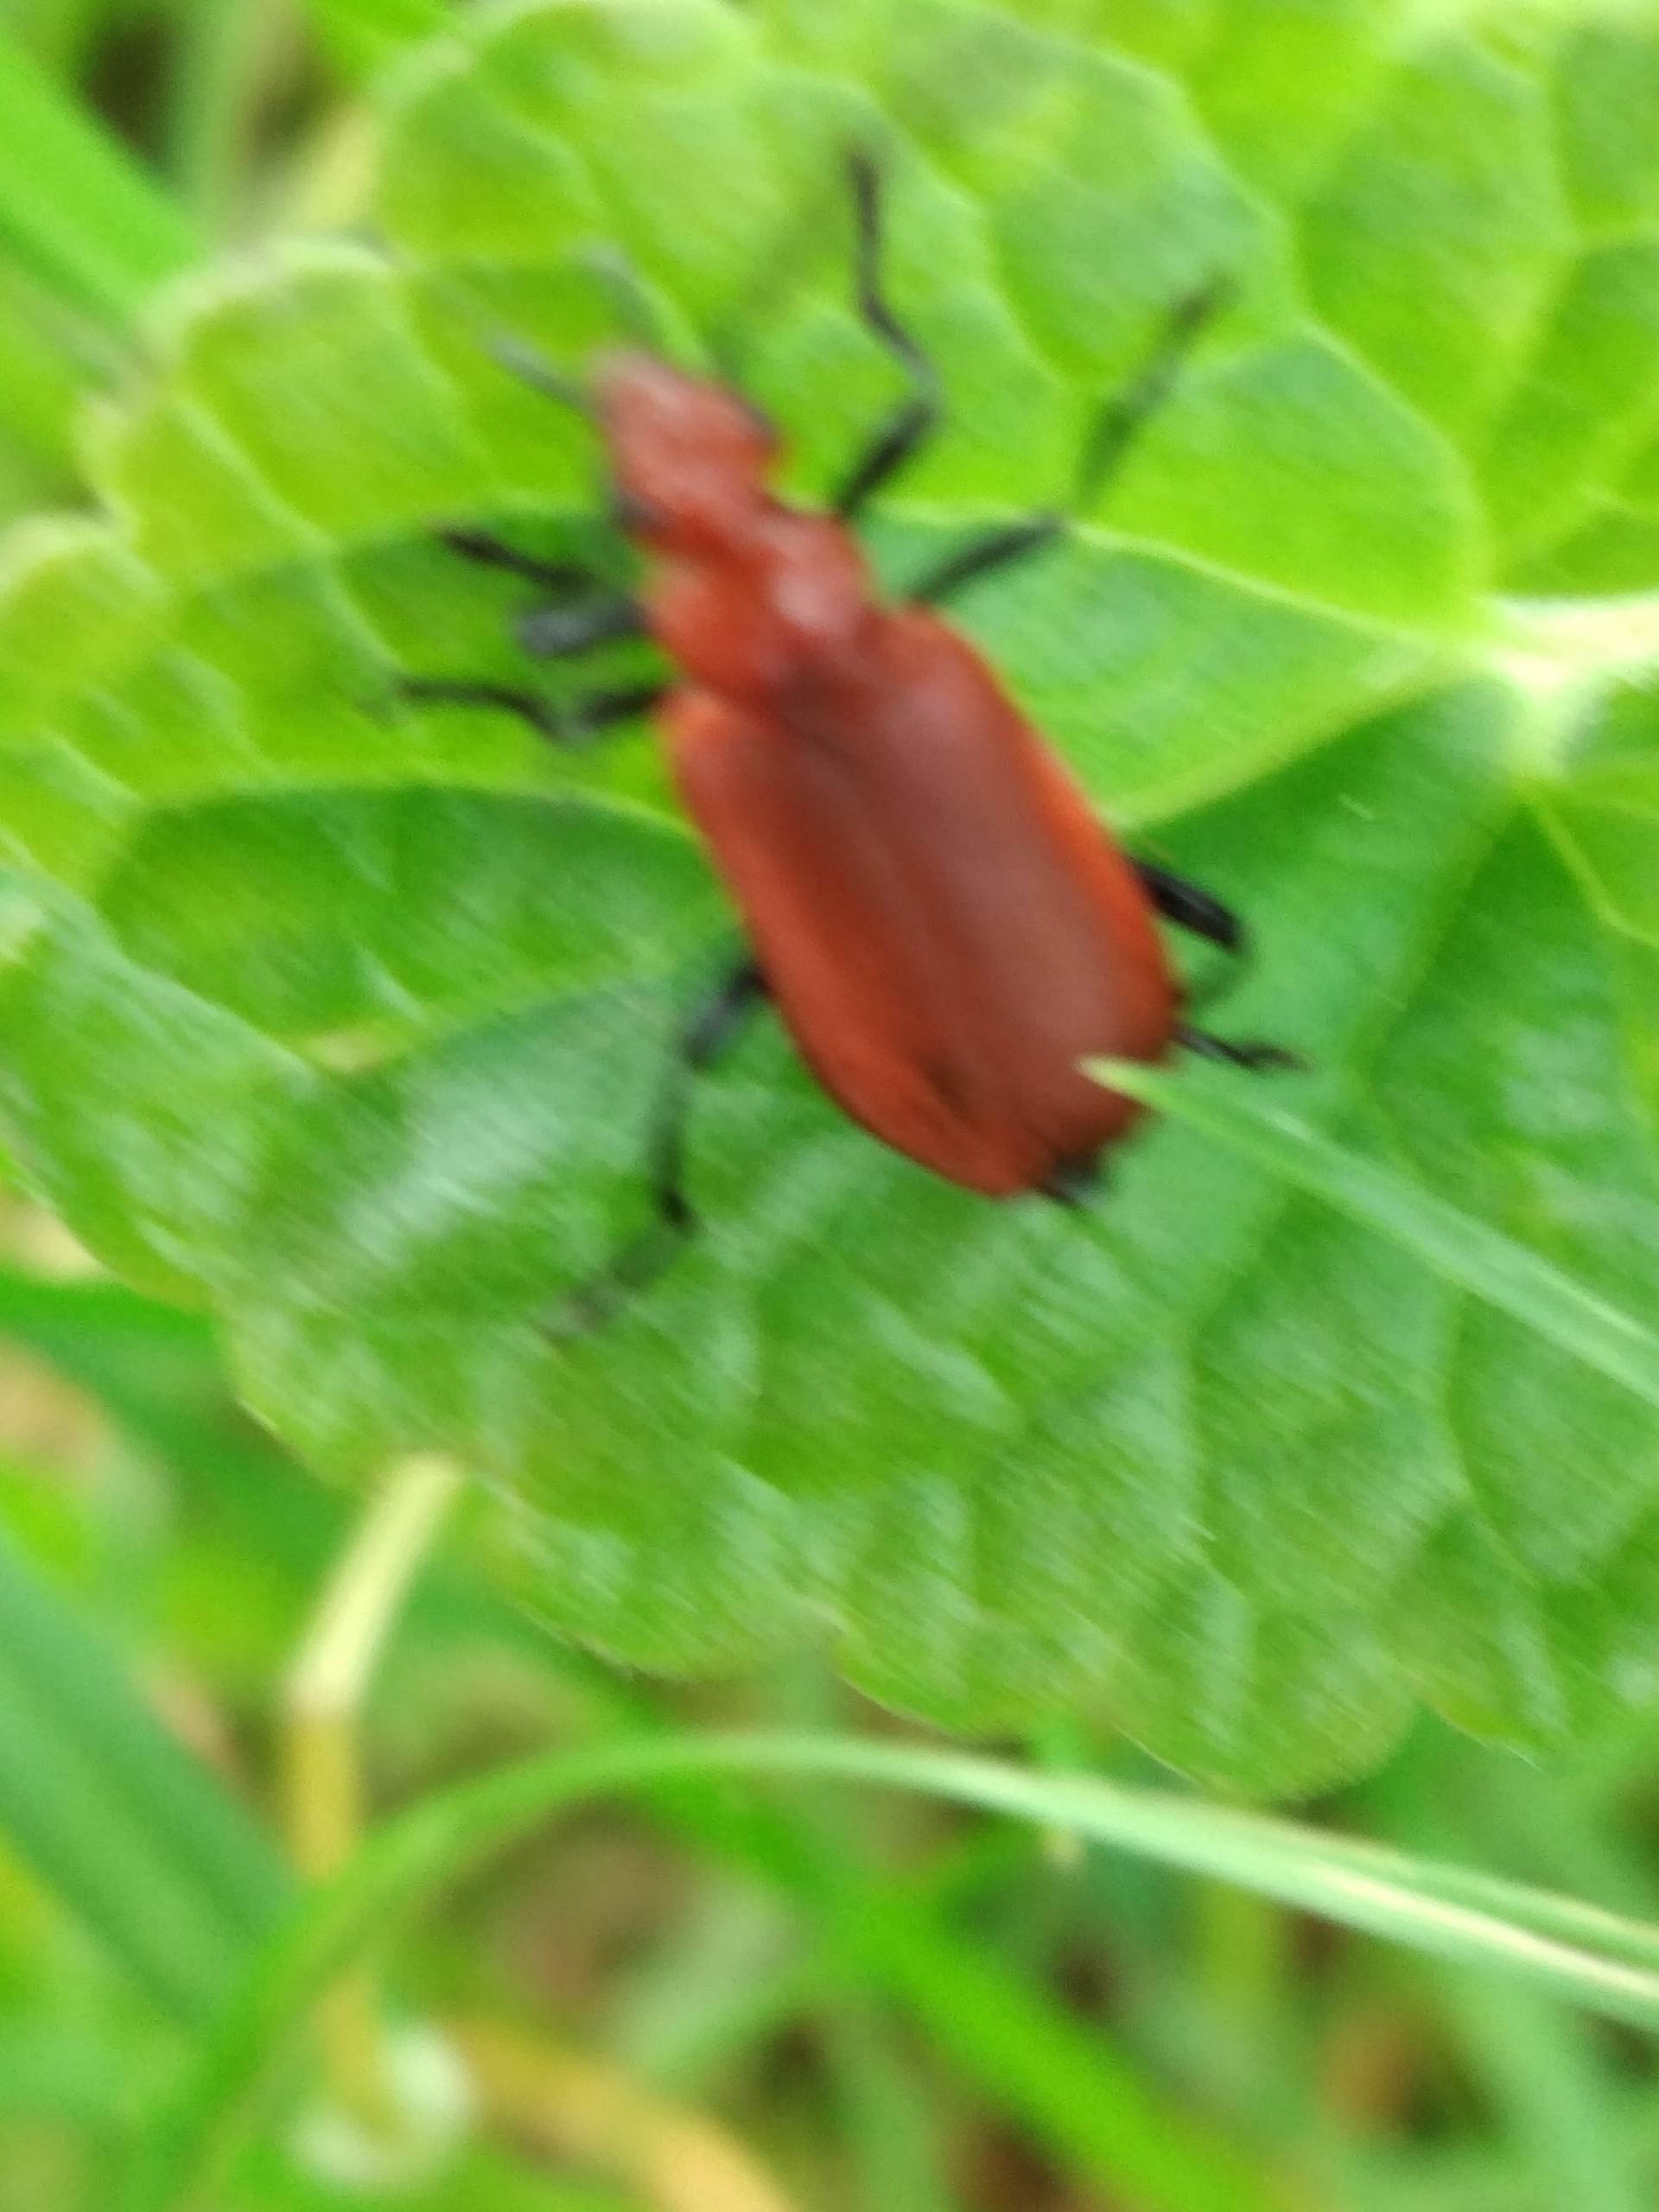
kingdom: Animalia
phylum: Arthropoda
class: Insecta
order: Coleoptera
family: Pyrochroidae
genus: Pyrochroa
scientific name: Pyrochroa serraticornis
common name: Rødhovedet kardinalbille
